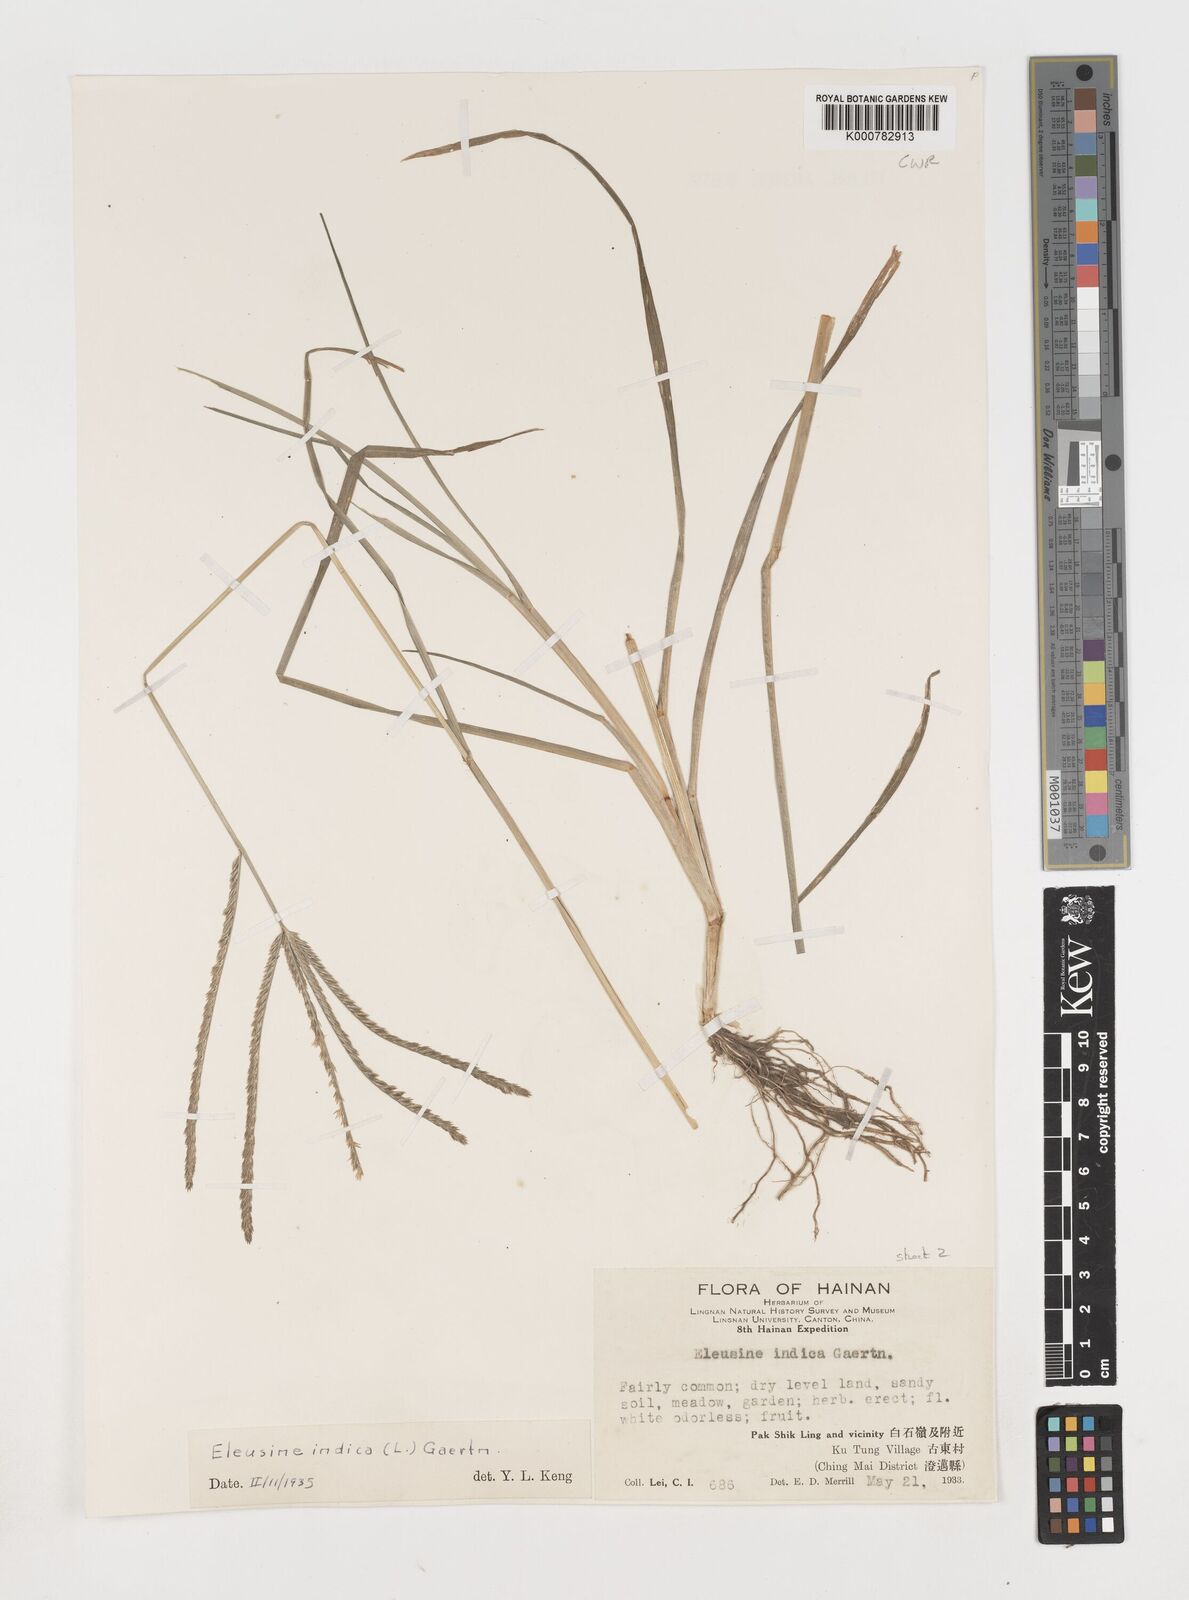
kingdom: Plantae
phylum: Tracheophyta
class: Liliopsida
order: Poales
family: Poaceae
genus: Eleusine
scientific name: Eleusine indica
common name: Yard-grass
